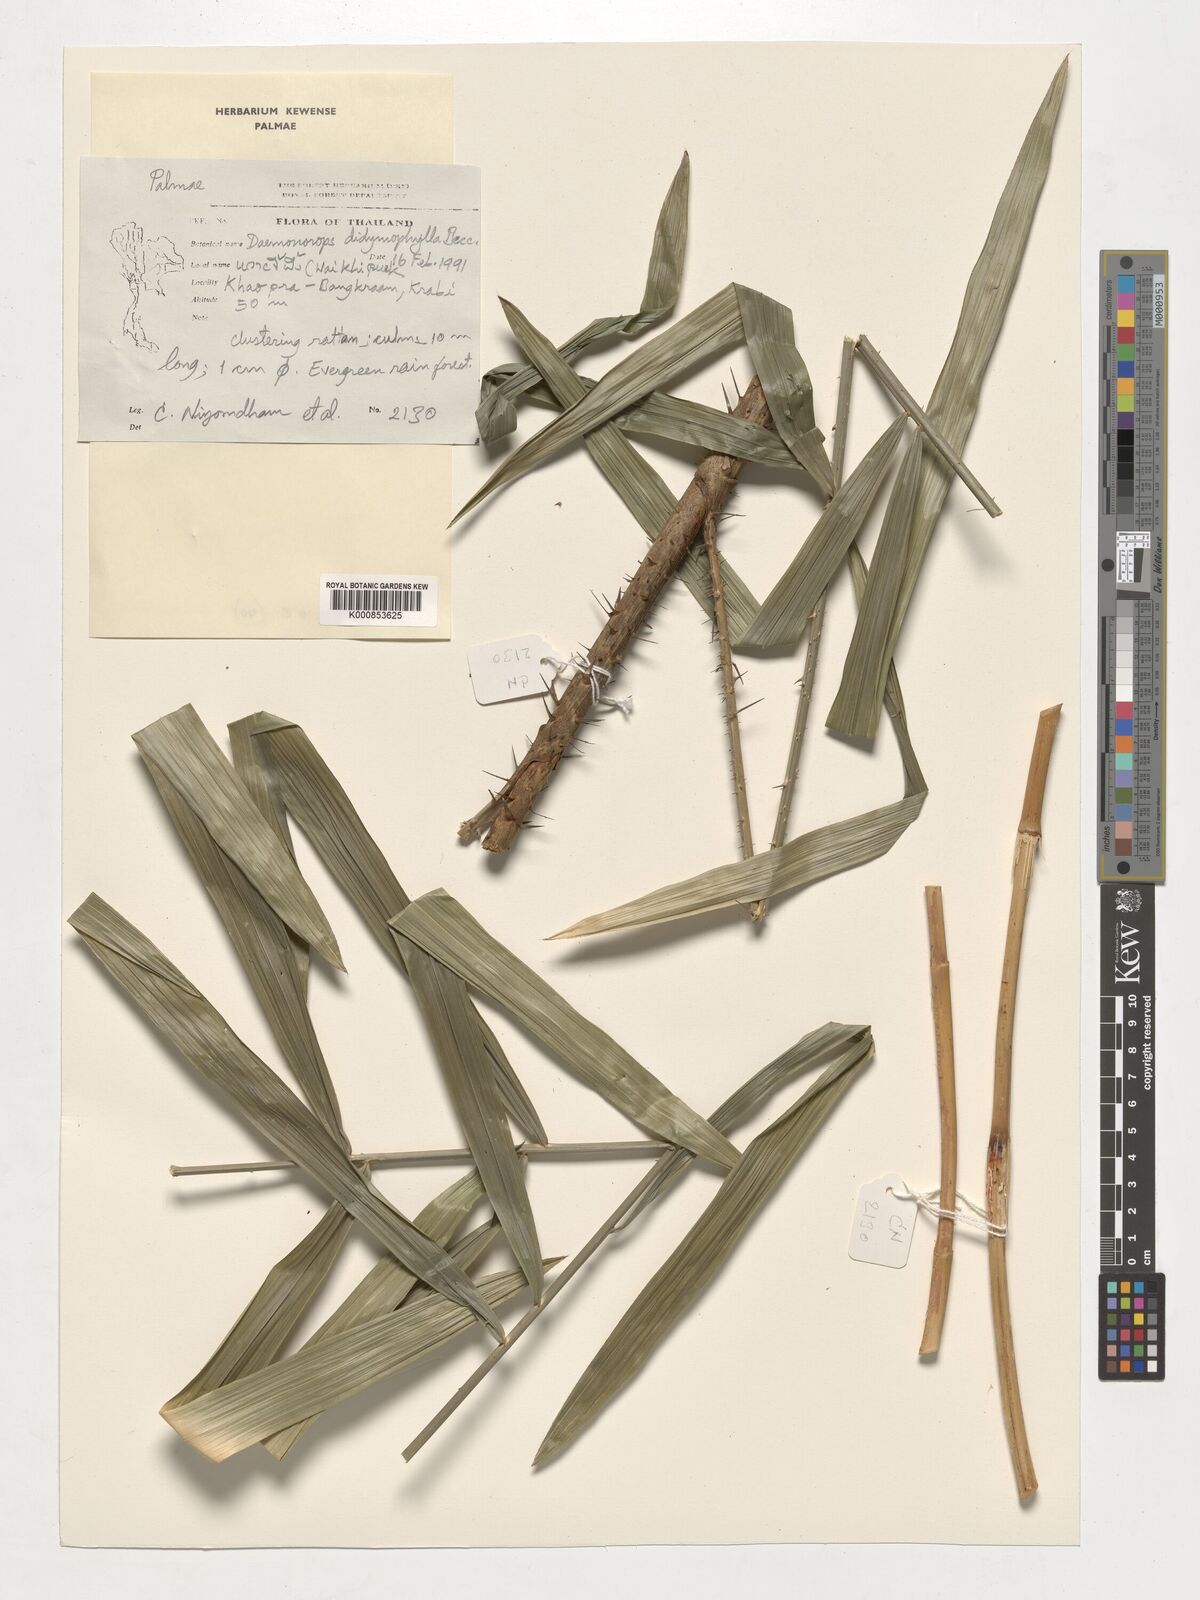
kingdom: Plantae
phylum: Tracheophyta
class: Liliopsida
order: Arecales
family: Arecaceae
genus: Calamus
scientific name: Calamus gracilipes
